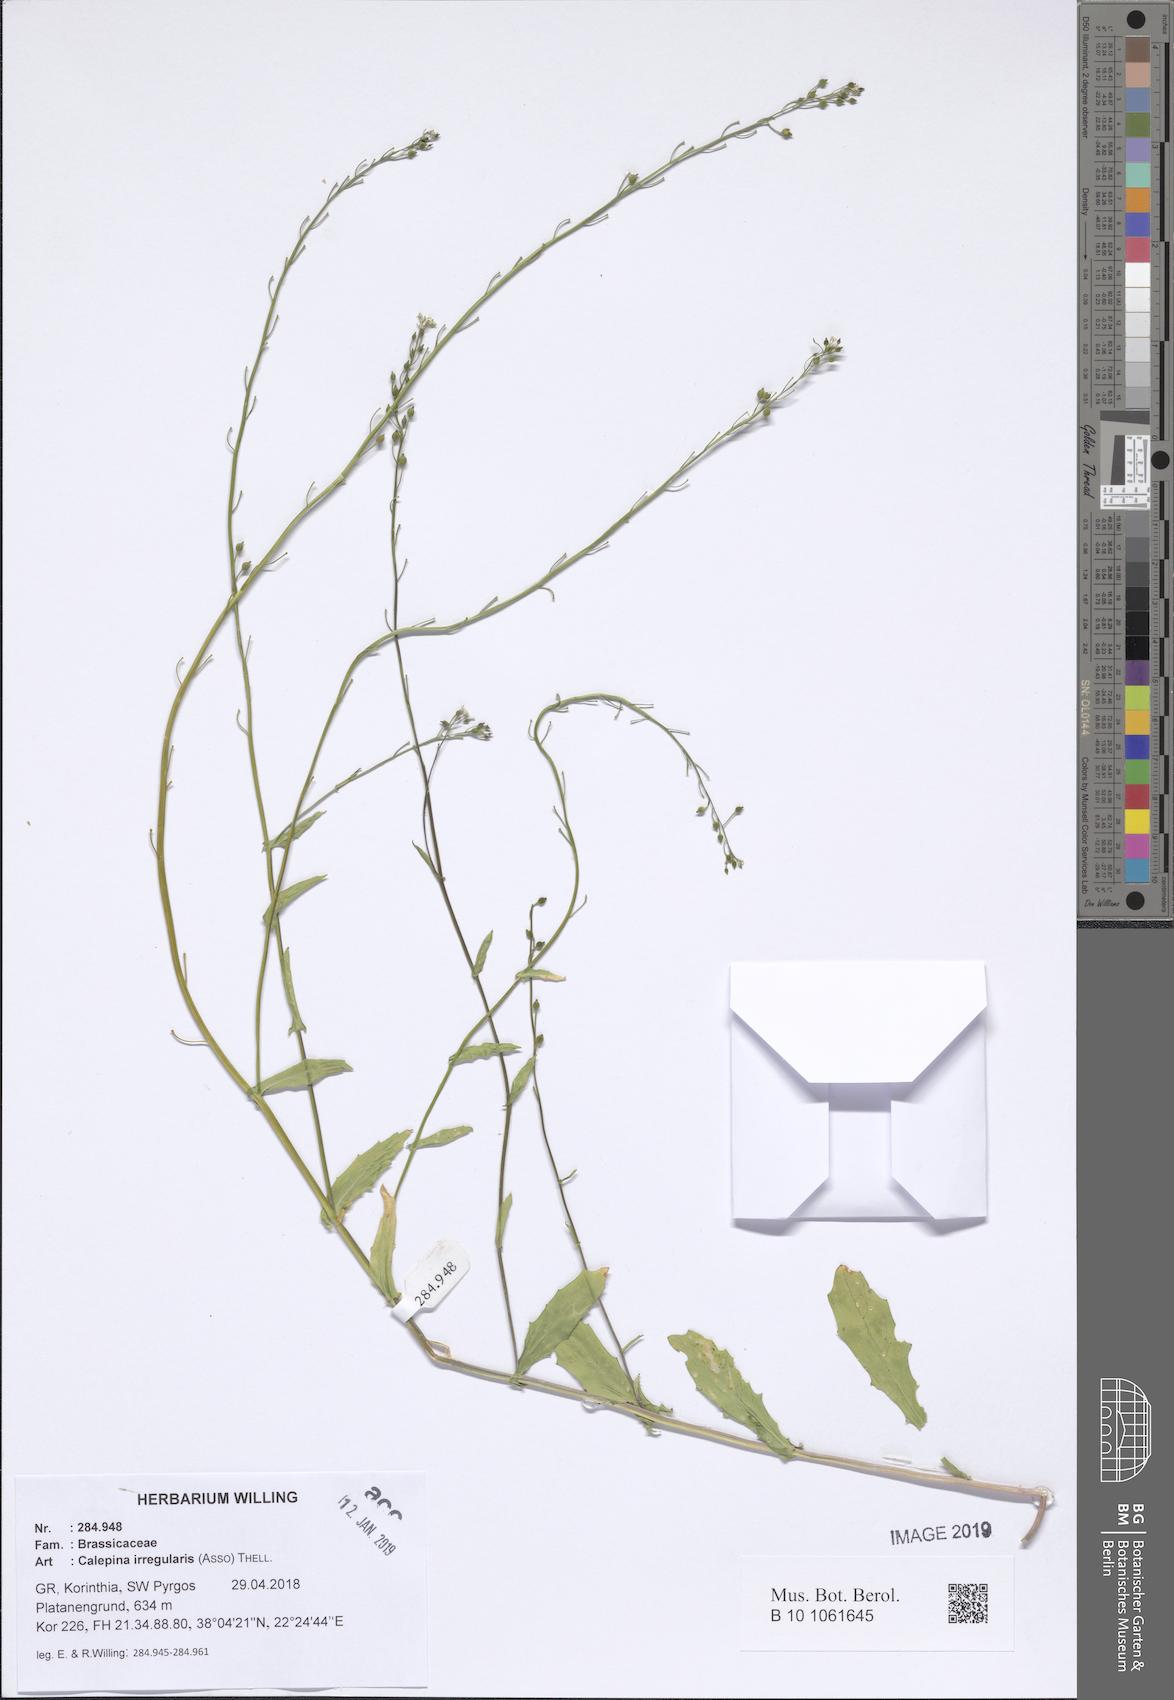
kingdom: Plantae
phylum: Tracheophyta
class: Magnoliopsida
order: Brassicales
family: Brassicaceae
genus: Calepina
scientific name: Calepina irregularis
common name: White ballmustard
